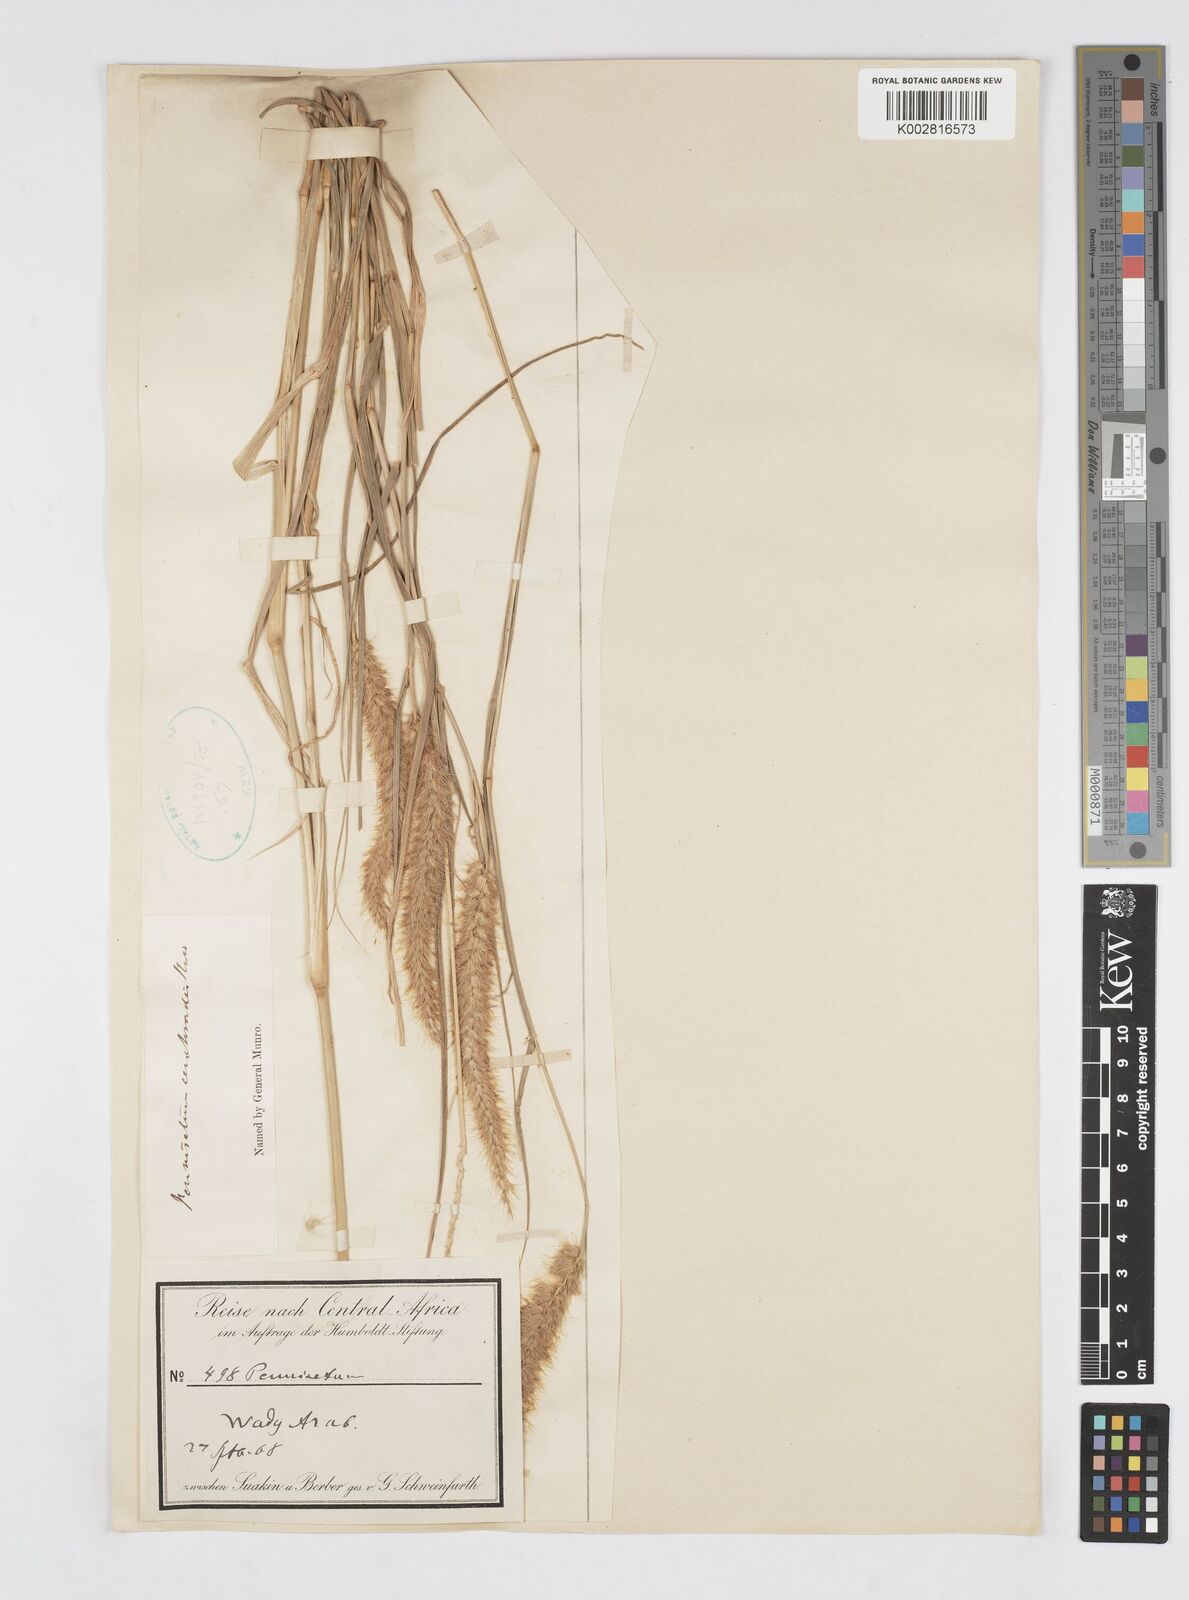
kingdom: Plantae
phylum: Tracheophyta
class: Liliopsida
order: Poales
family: Poaceae
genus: Cenchrus
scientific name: Cenchrus ciliaris
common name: Buffelgrass
